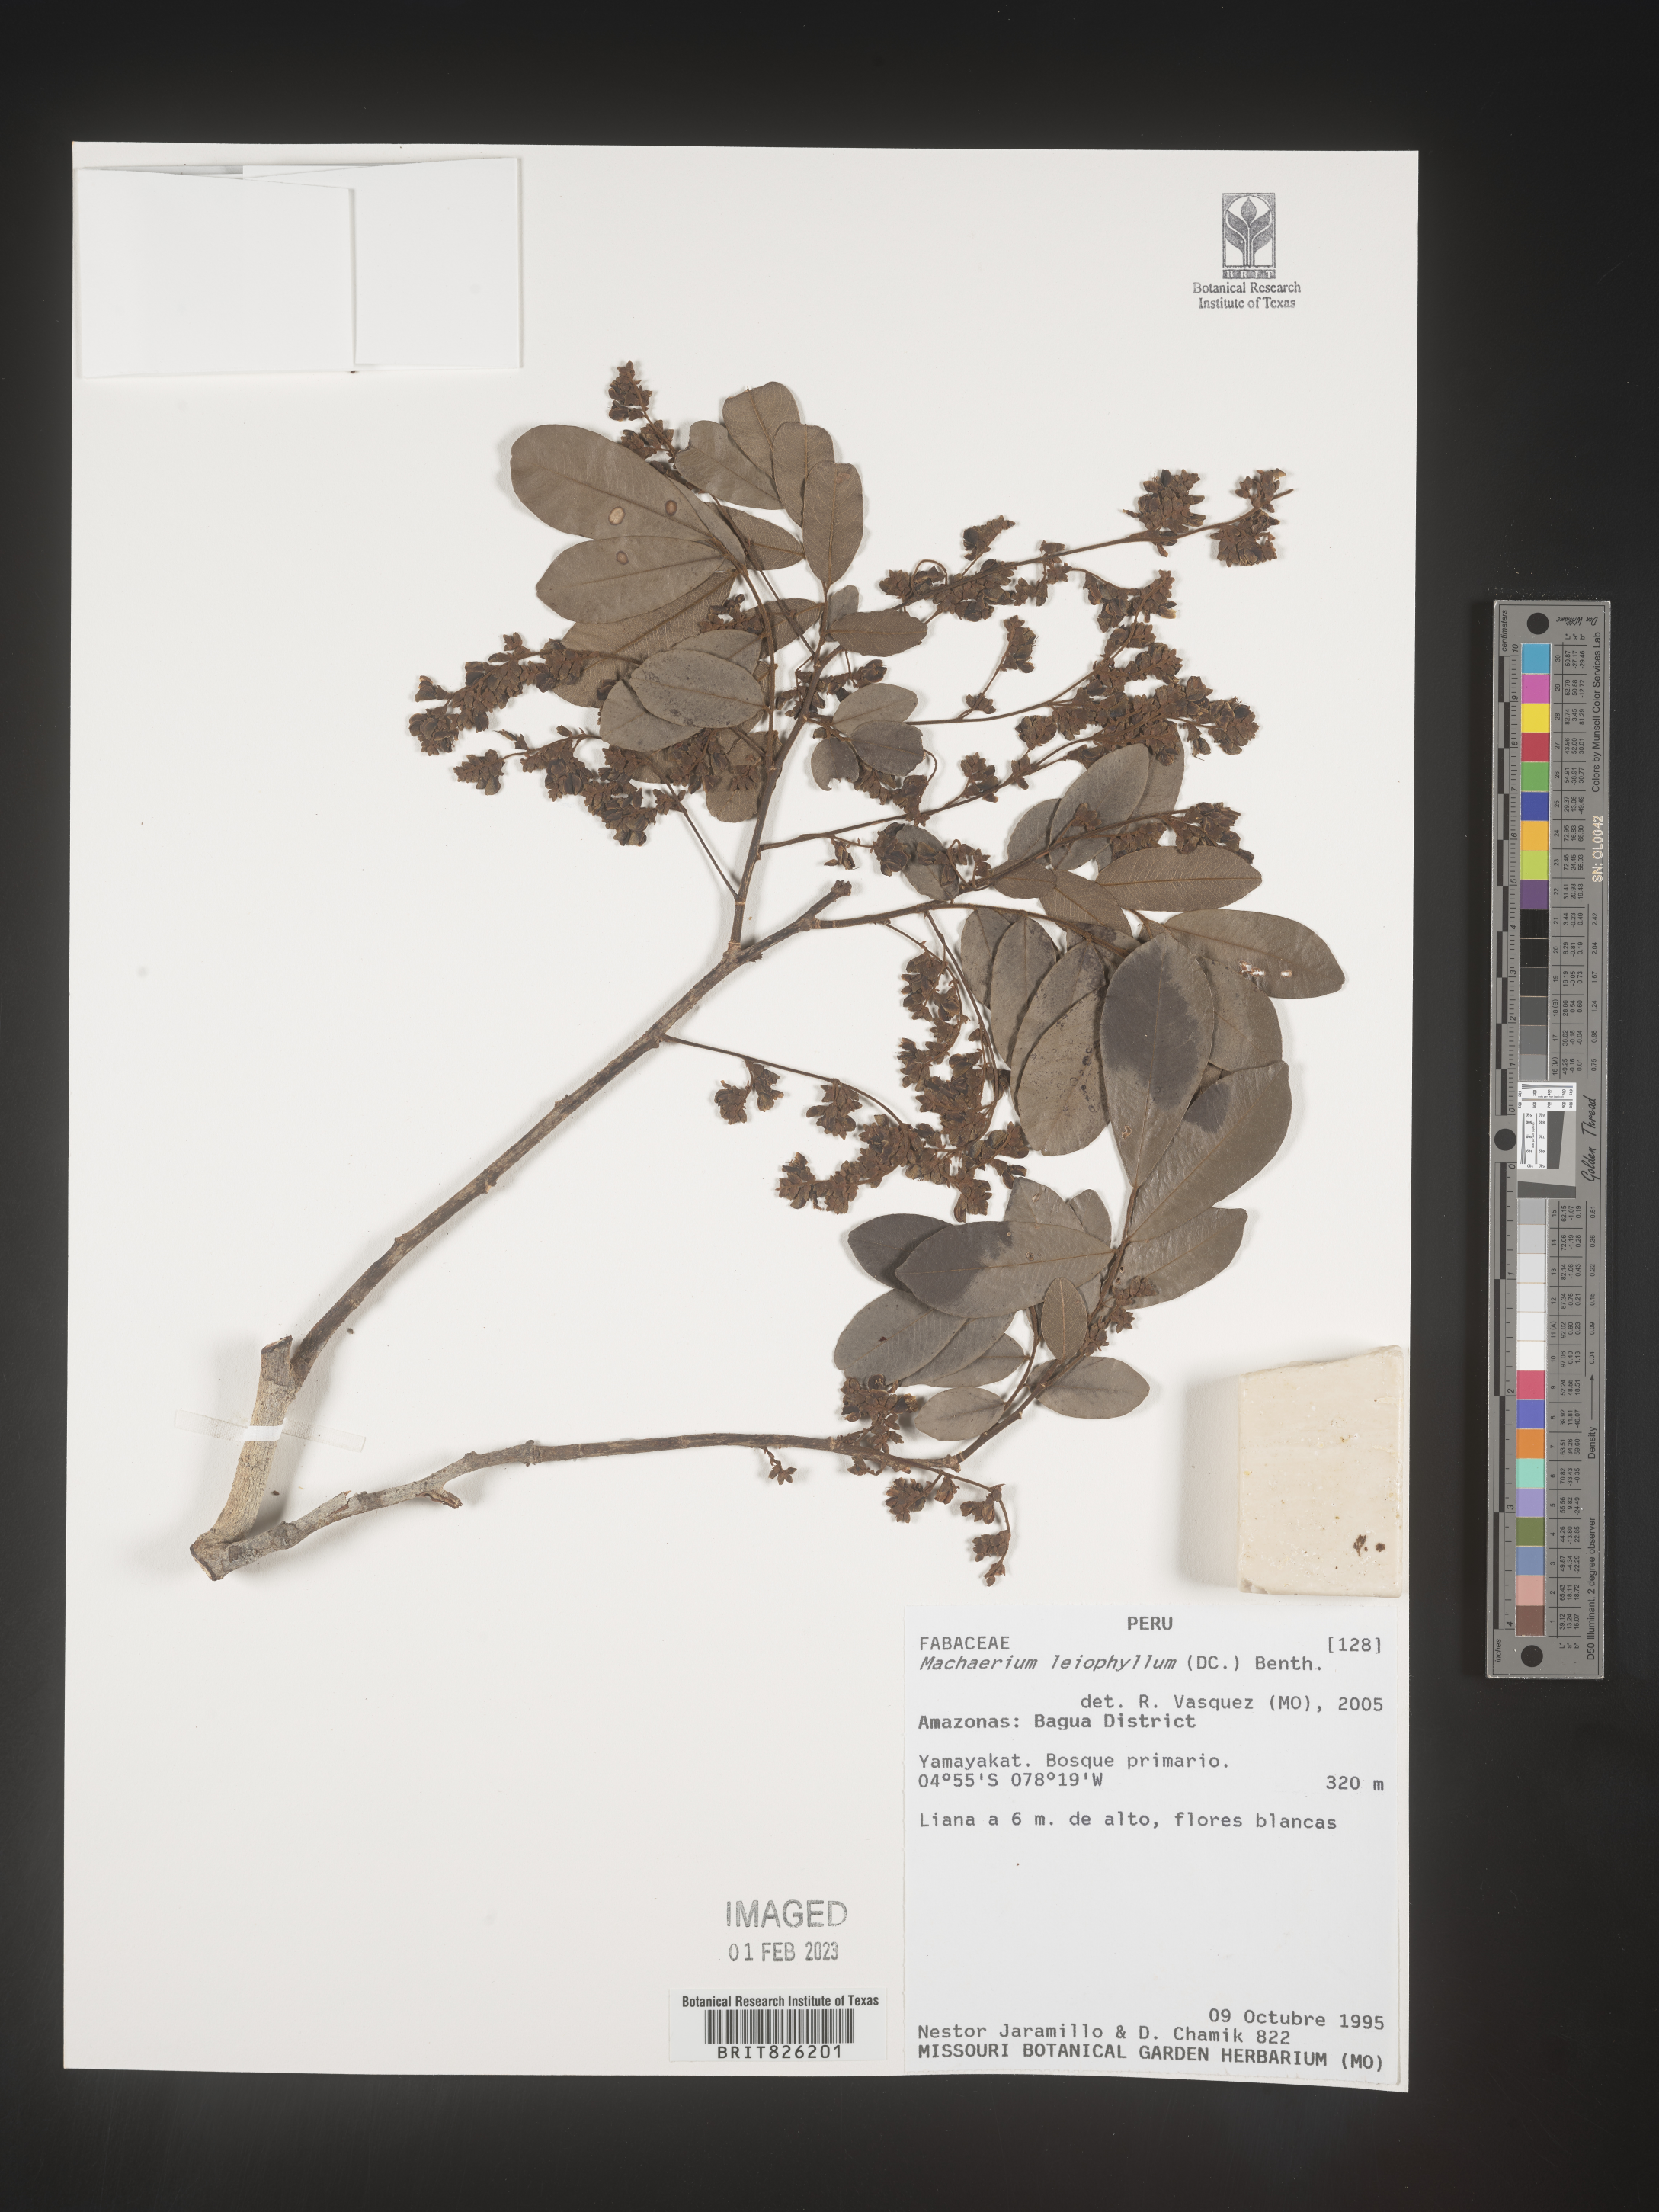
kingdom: Plantae
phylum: Tracheophyta
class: Magnoliopsida
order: Fabales
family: Fabaceae
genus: Machaerium
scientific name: Machaerium
